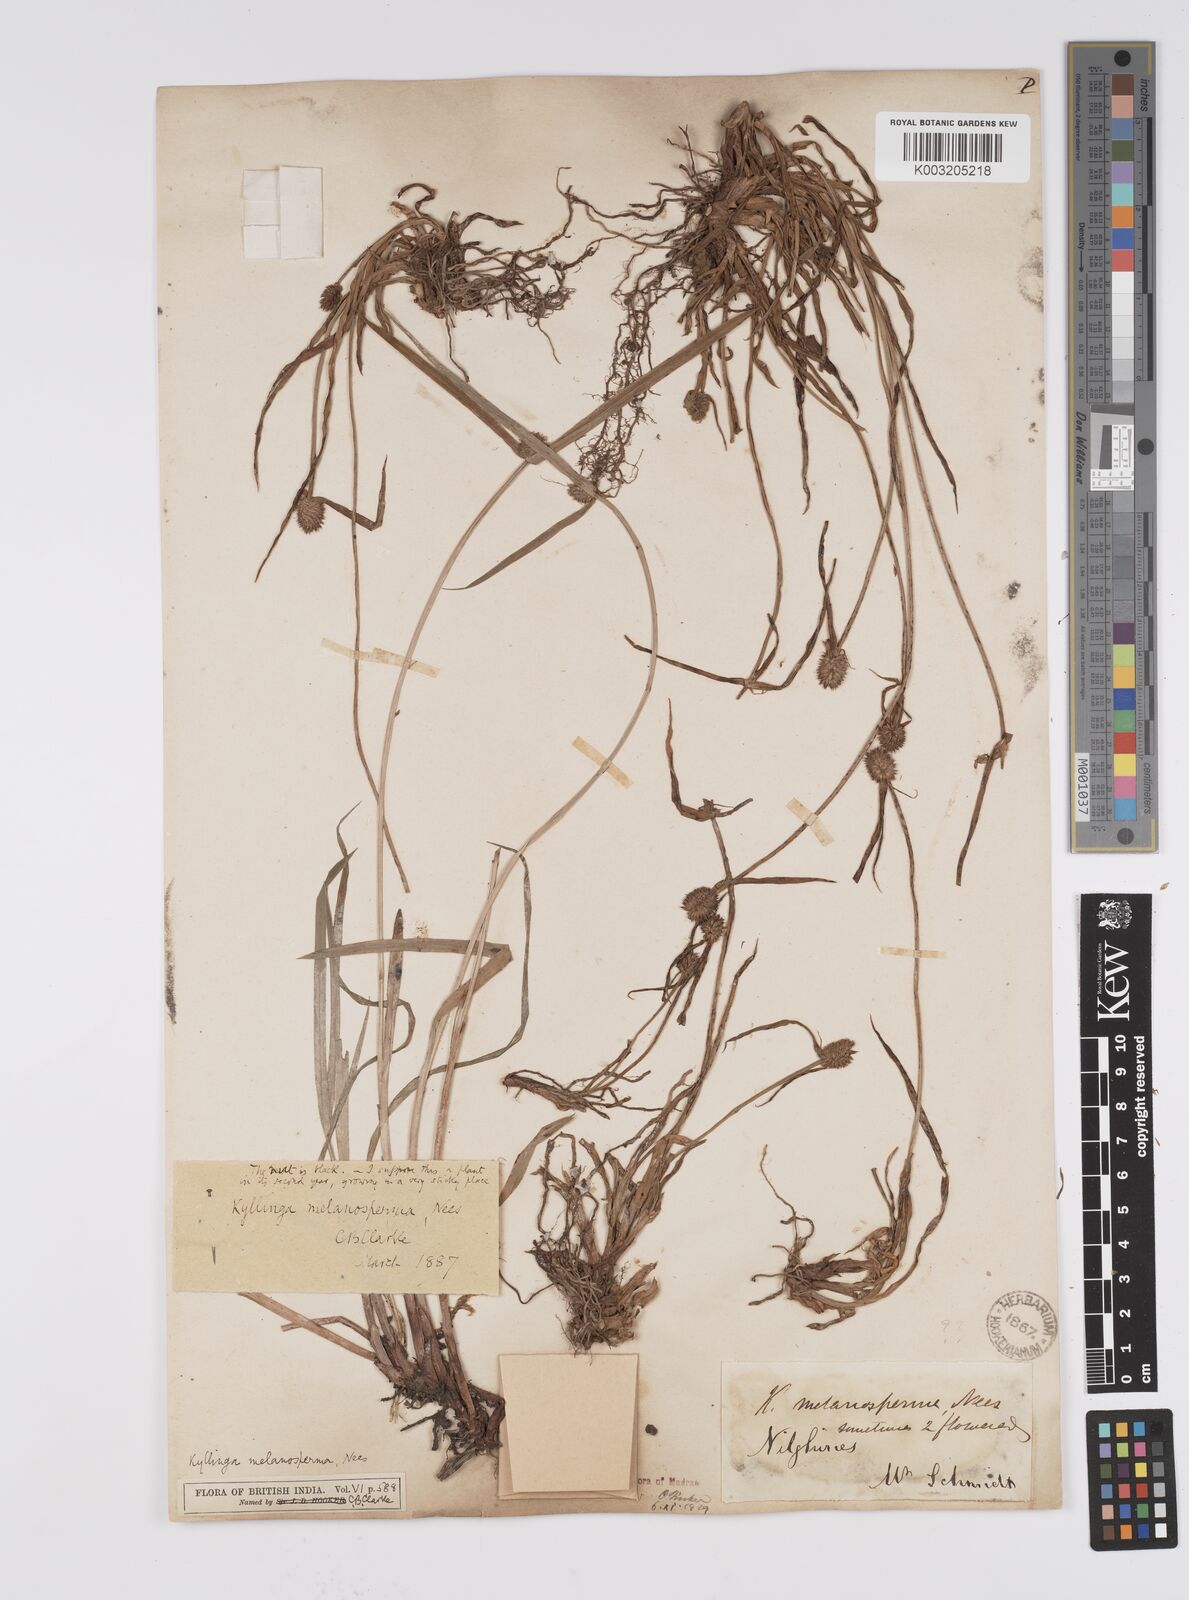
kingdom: Plantae
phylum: Tracheophyta
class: Liliopsida
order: Poales
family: Cyperaceae
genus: Cyperus
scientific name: Cyperus melanospermus
